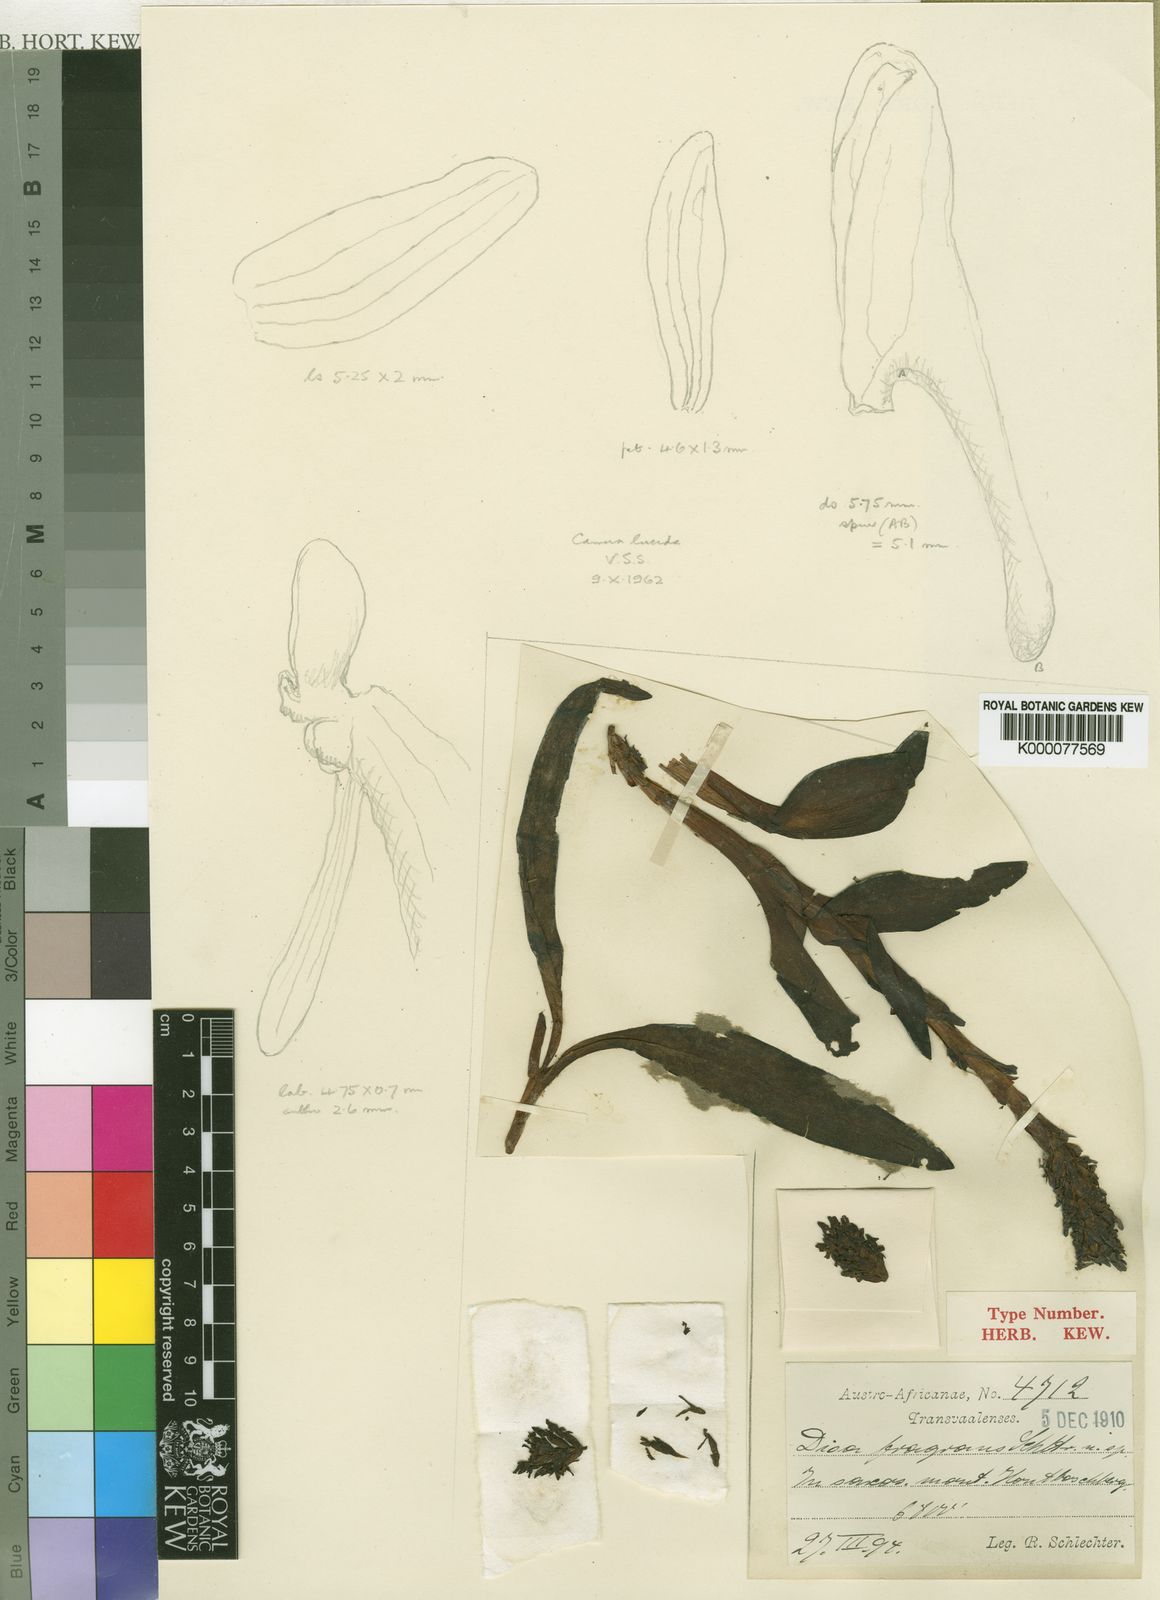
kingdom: Plantae
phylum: Tracheophyta
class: Liliopsida
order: Asparagales
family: Orchidaceae
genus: Disa
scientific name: Disa fragrans
